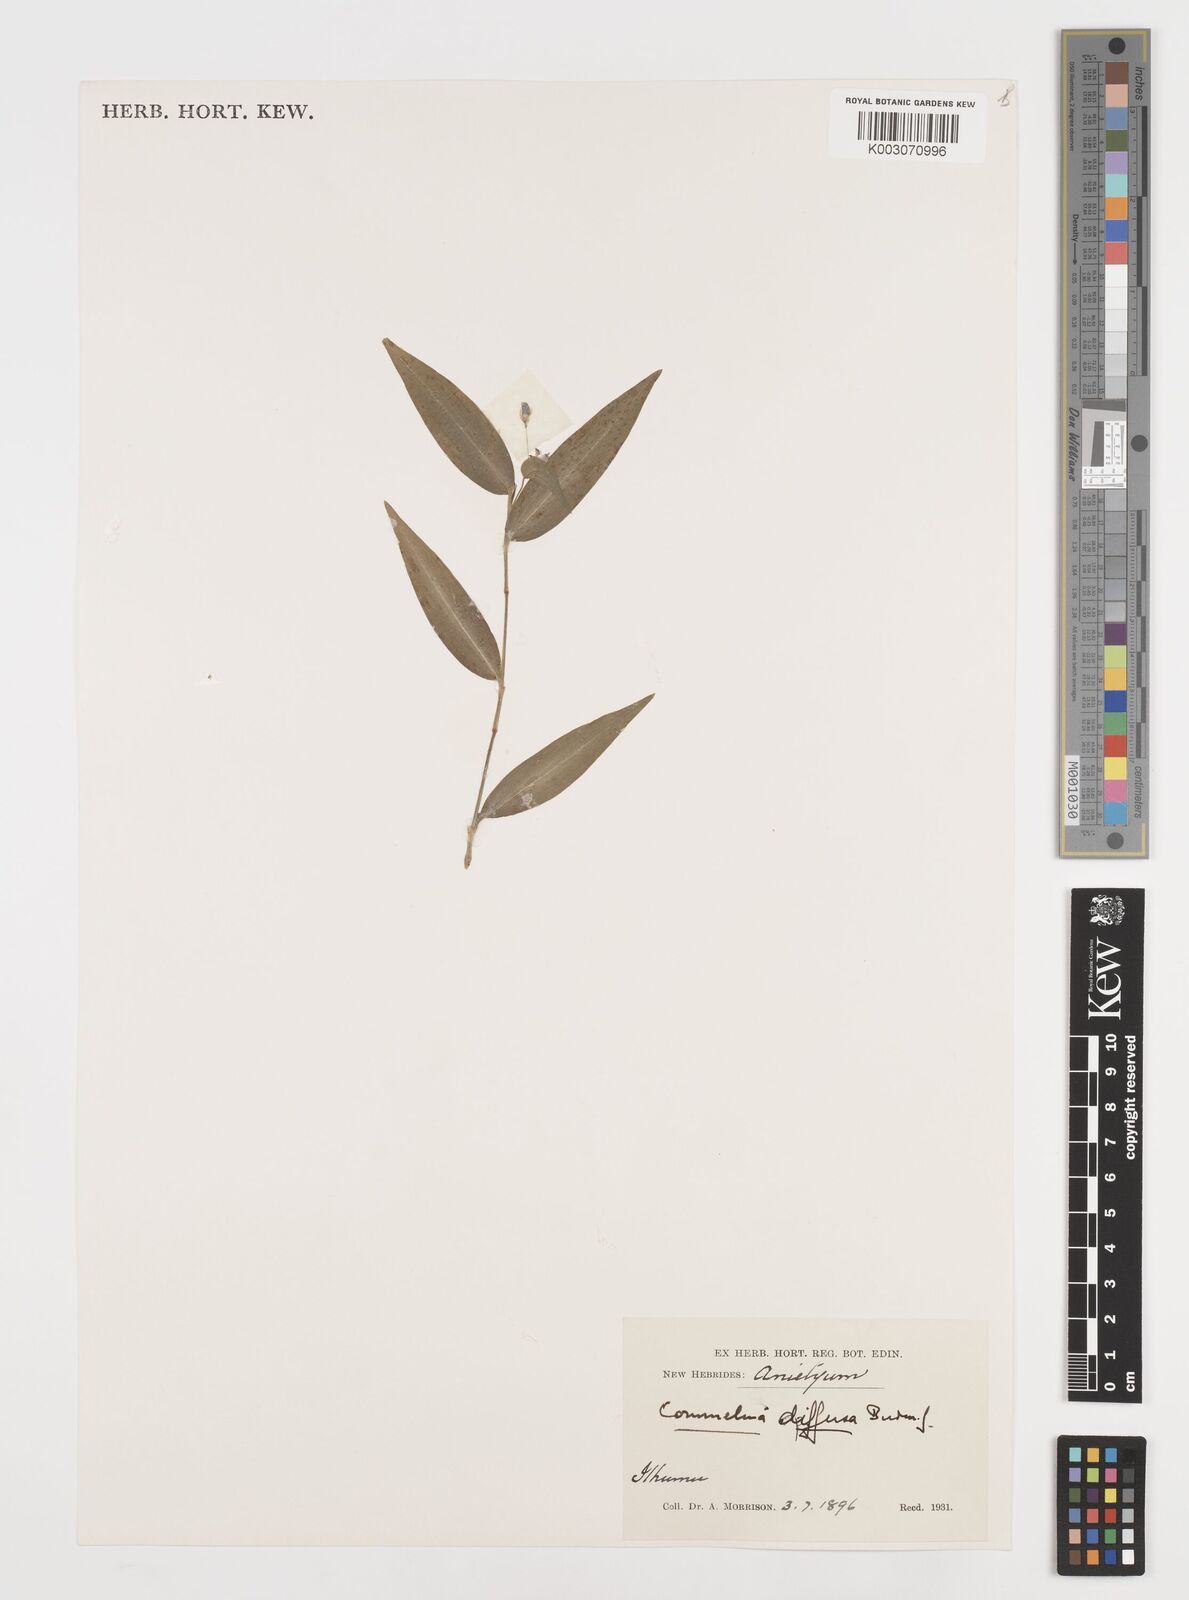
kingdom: Plantae
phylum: Tracheophyta
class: Liliopsida
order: Commelinales
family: Commelinaceae
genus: Commelina
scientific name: Commelina diffusa
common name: Climbing dayflower
